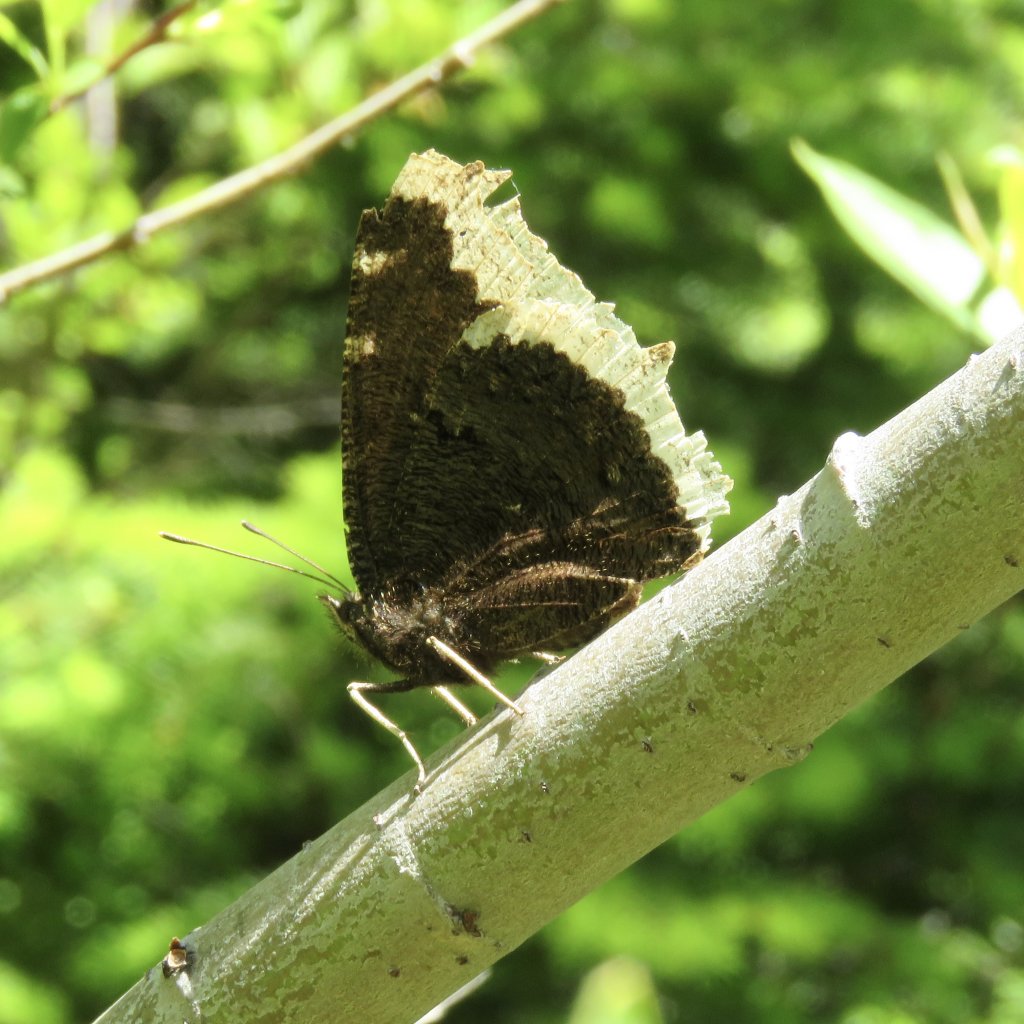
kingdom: Animalia
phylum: Arthropoda
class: Insecta
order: Lepidoptera
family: Nymphalidae
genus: Nymphalis
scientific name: Nymphalis antiopa
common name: Mourning Cloak
